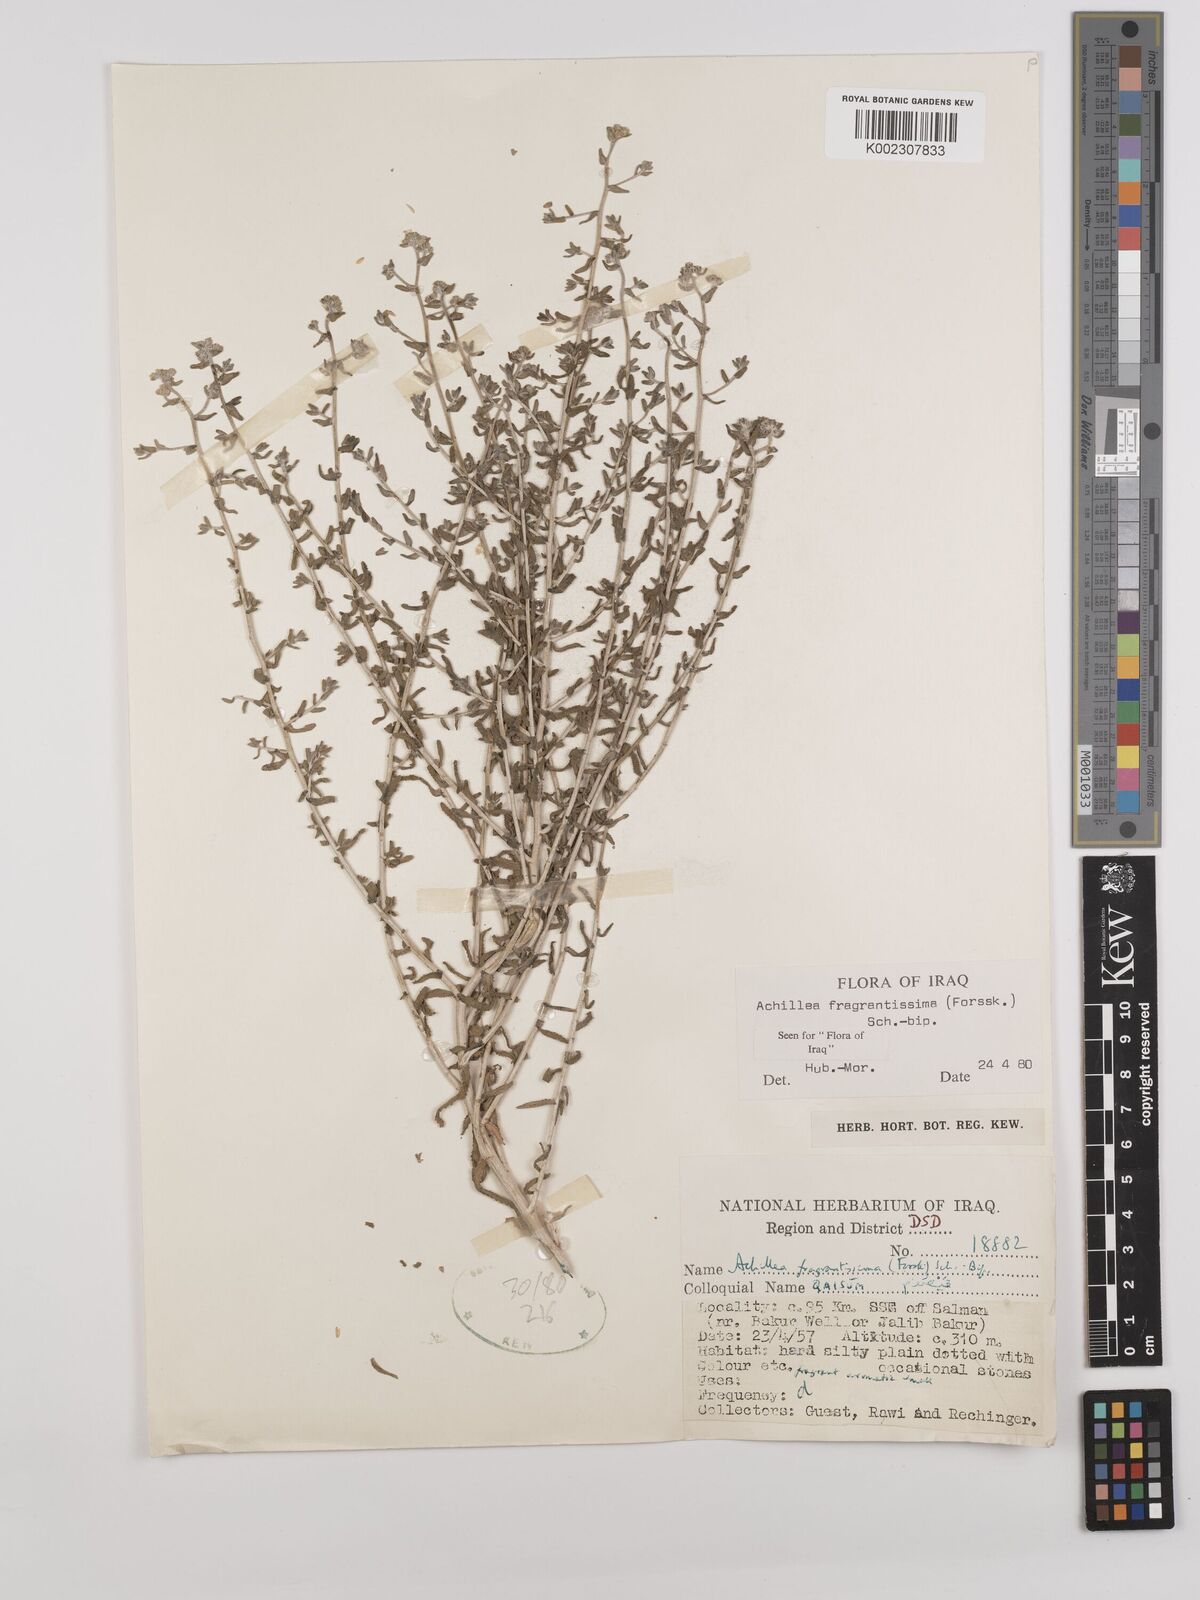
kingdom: Plantae
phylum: Tracheophyta
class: Magnoliopsida
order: Asterales
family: Asteraceae
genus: Achillea
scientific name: Achillea fragrantissima
